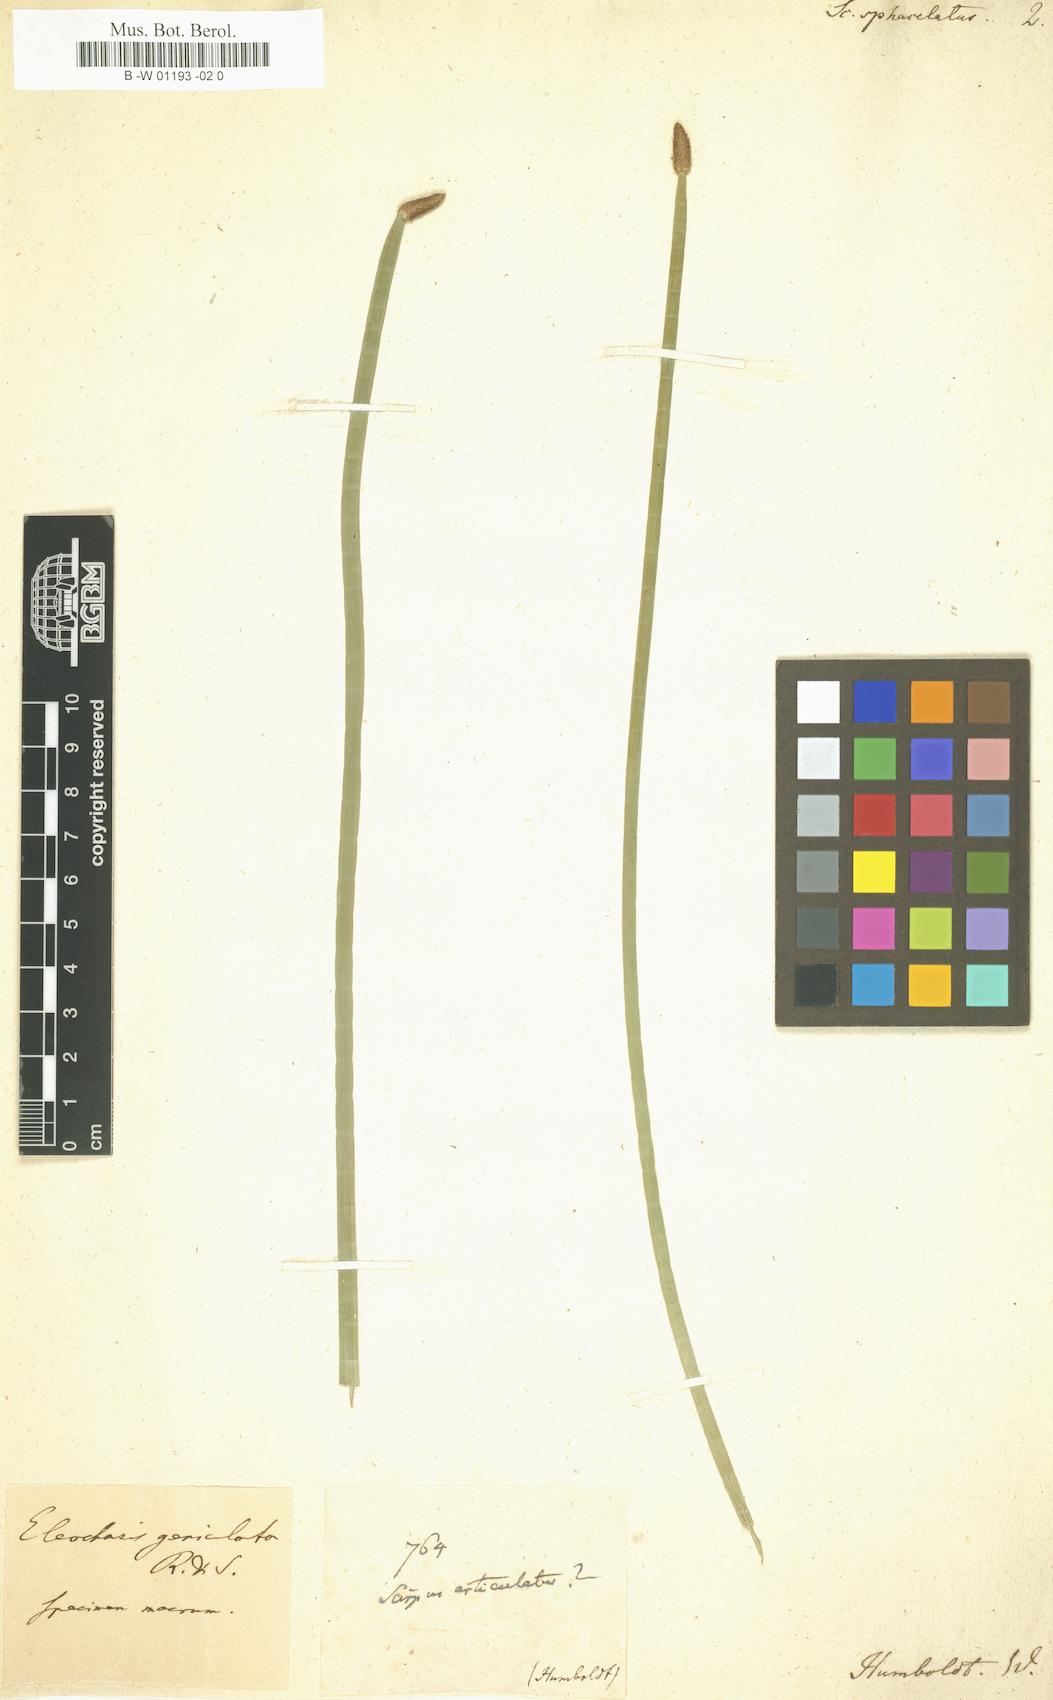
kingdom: Plantae
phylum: Tracheophyta
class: Liliopsida
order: Poales
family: Cyperaceae
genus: Scirpus
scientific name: Scirpus sphacelatus
